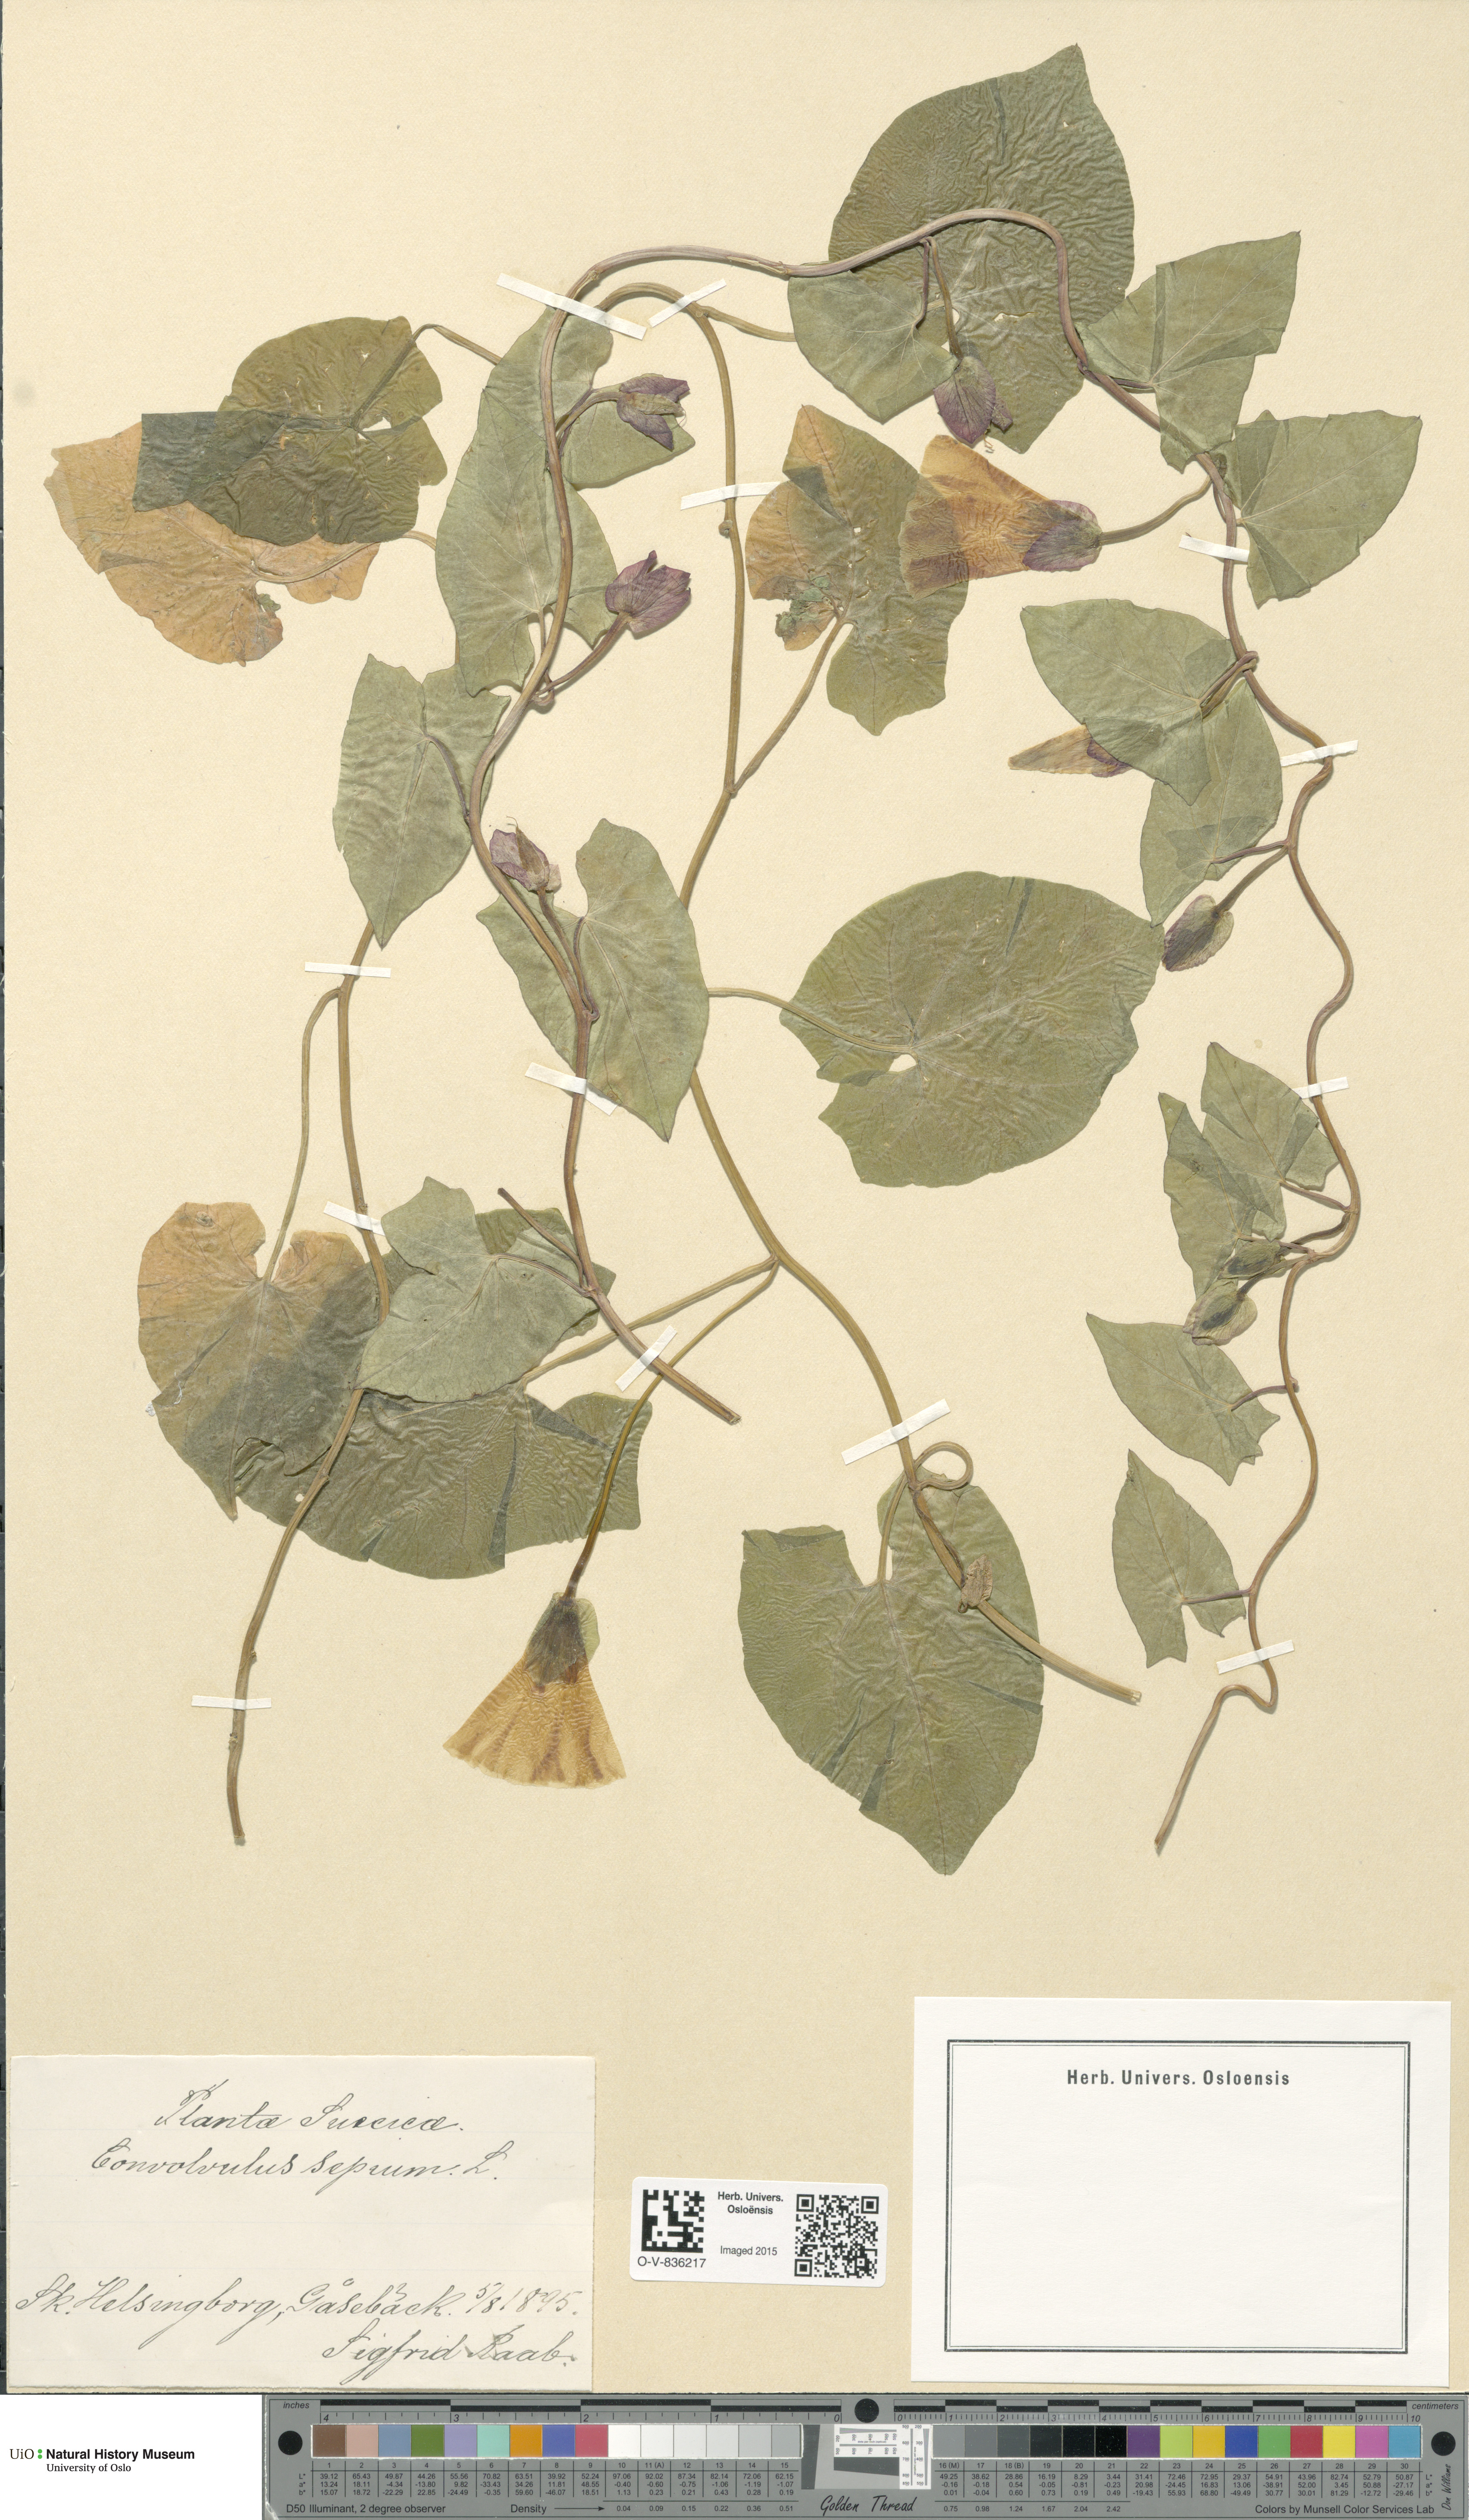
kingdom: Plantae
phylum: Tracheophyta
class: Magnoliopsida
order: Solanales
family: Convolvulaceae
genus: Calystegia
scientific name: Calystegia sepium
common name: Hedge bindweed
